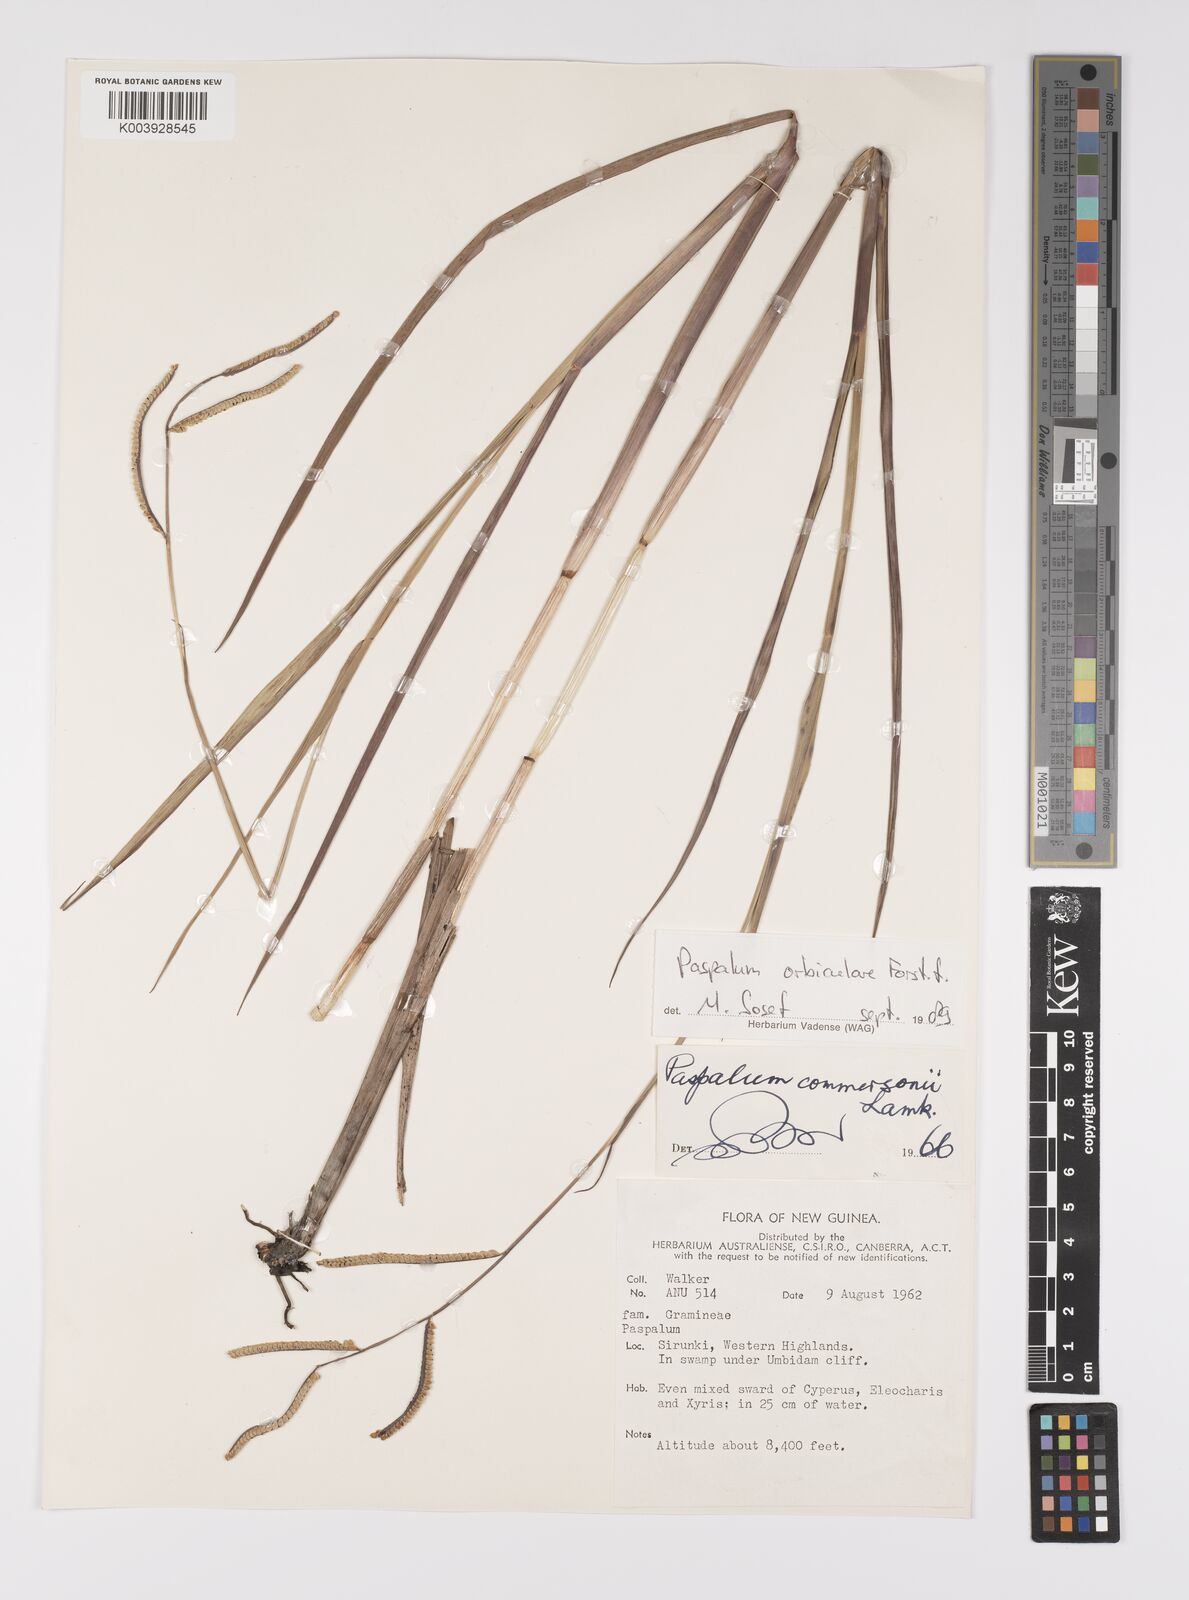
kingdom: Plantae
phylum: Tracheophyta
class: Liliopsida
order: Poales
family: Poaceae
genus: Paspalum
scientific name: Paspalum scrobiculatum
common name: Kodo millet
